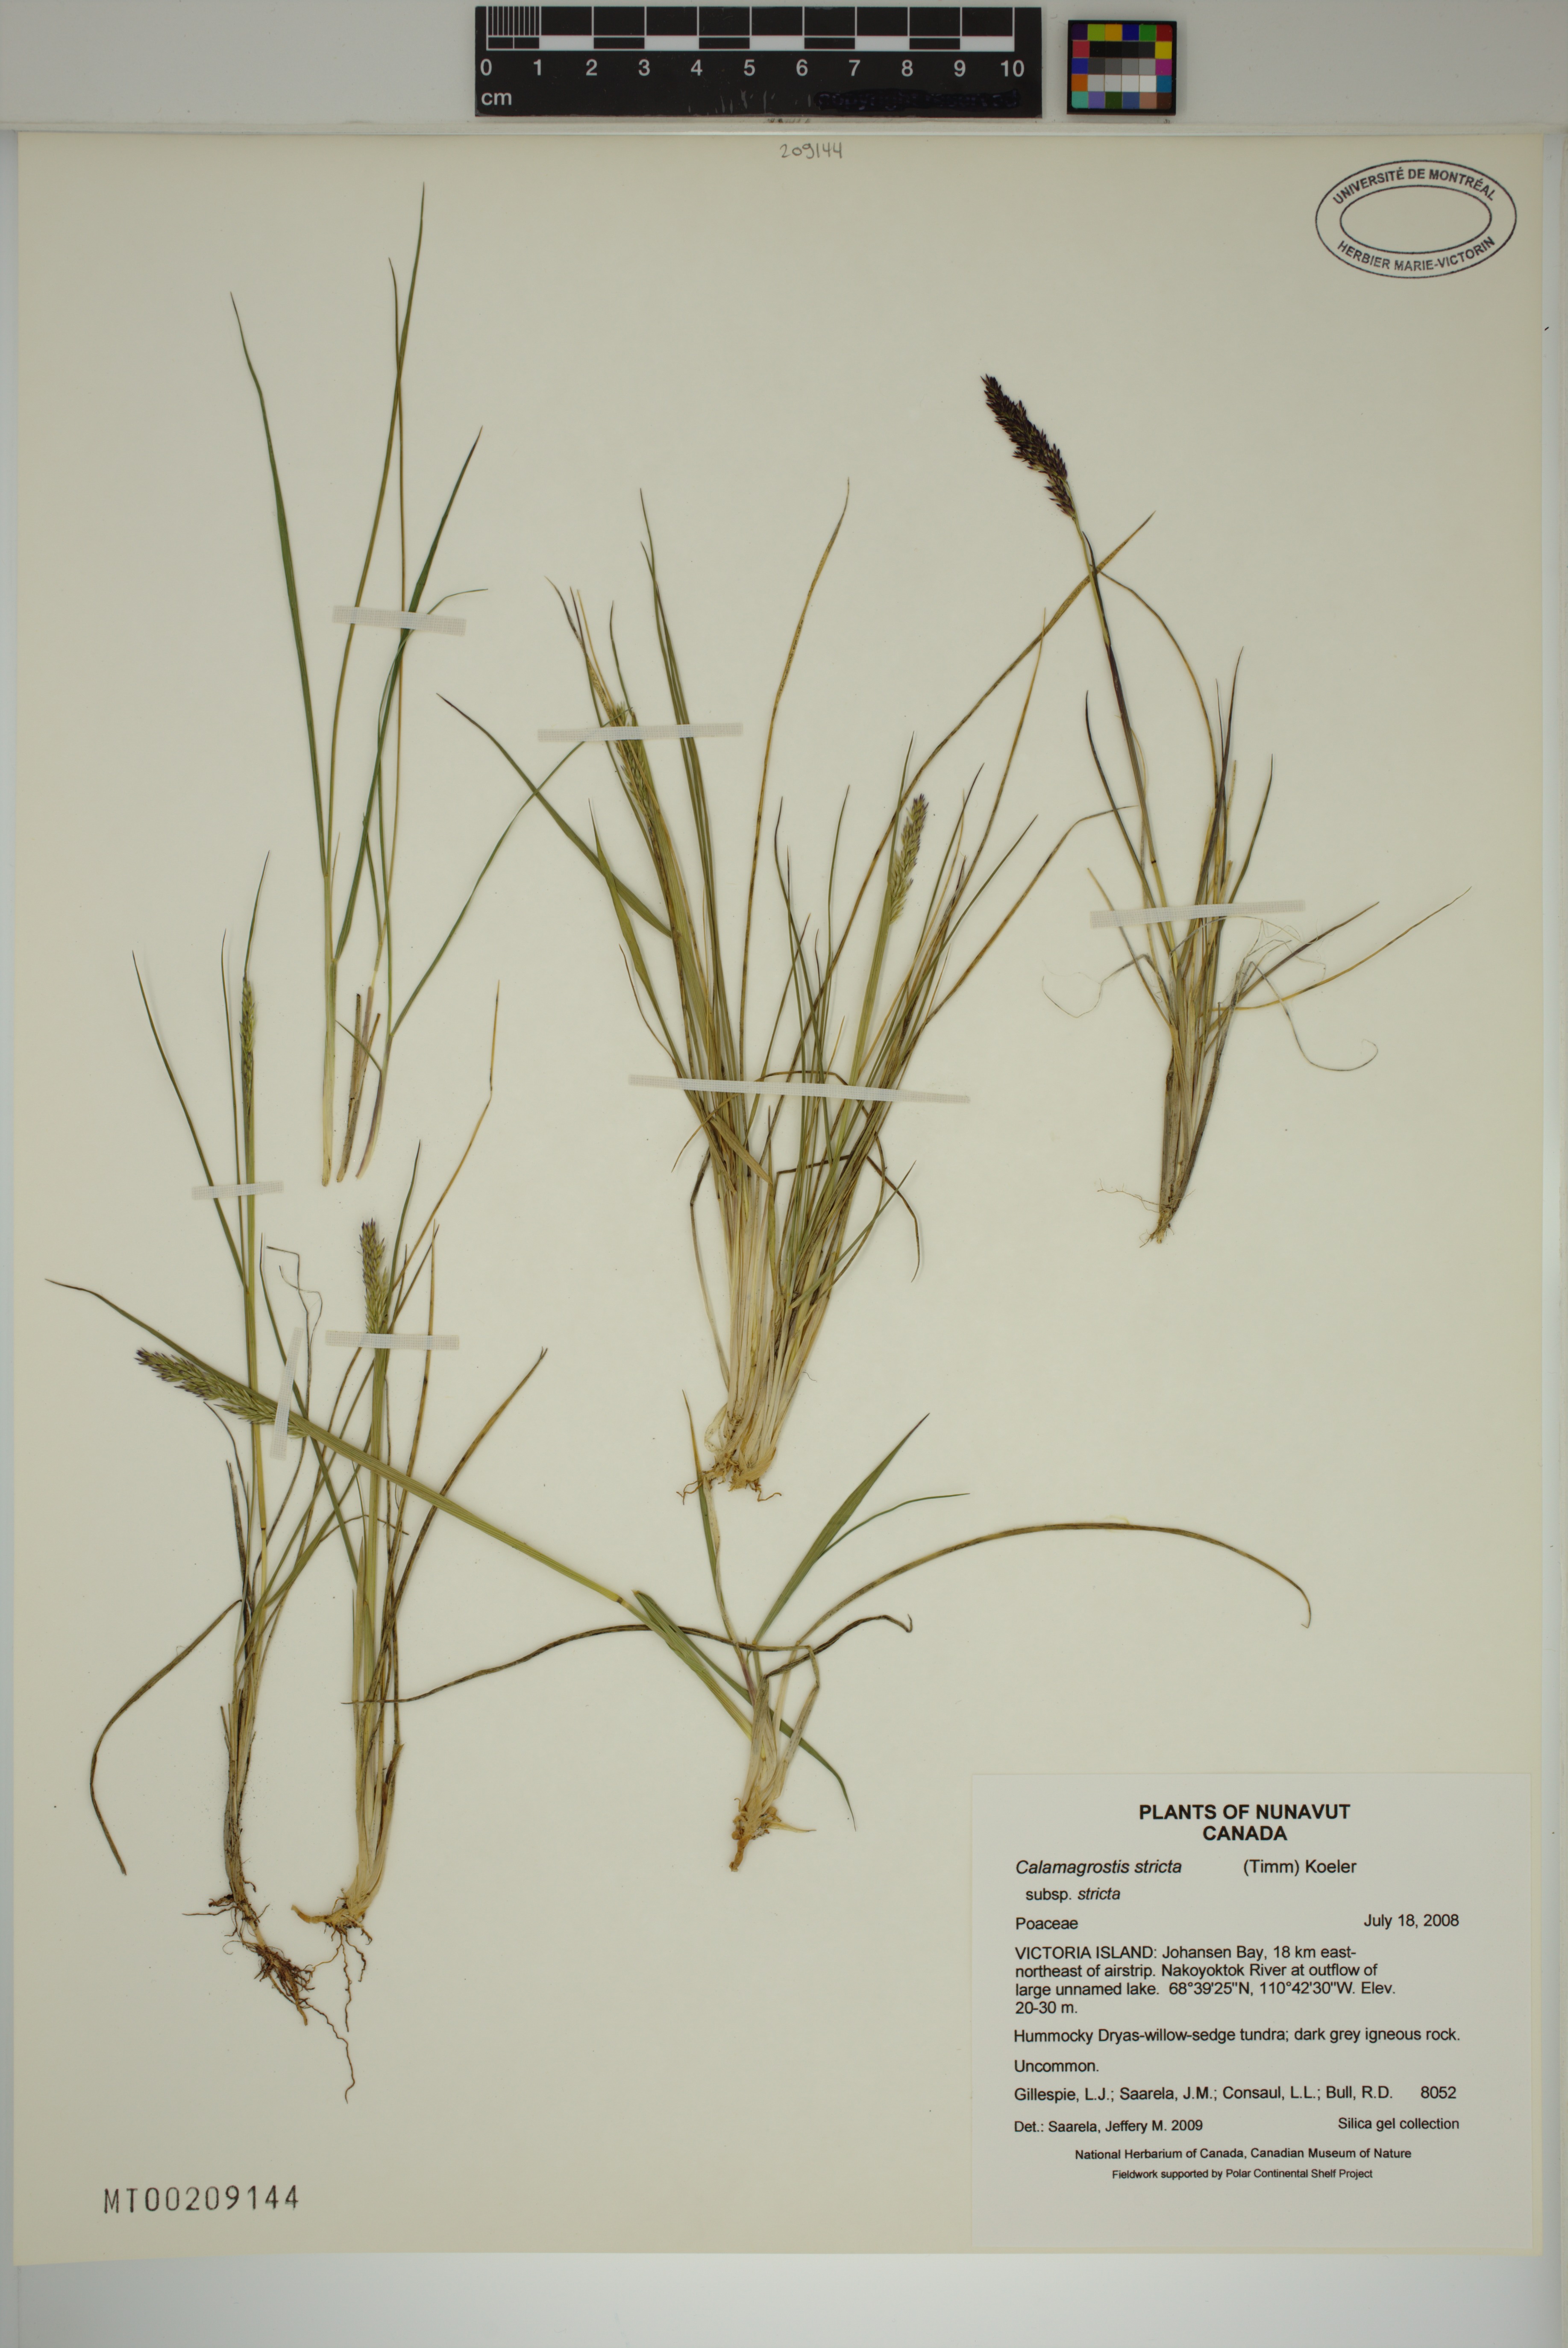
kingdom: Plantae
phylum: Tracheophyta
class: Liliopsida
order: Poales
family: Poaceae
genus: Achnatherum
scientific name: Achnatherum calamagrostis
